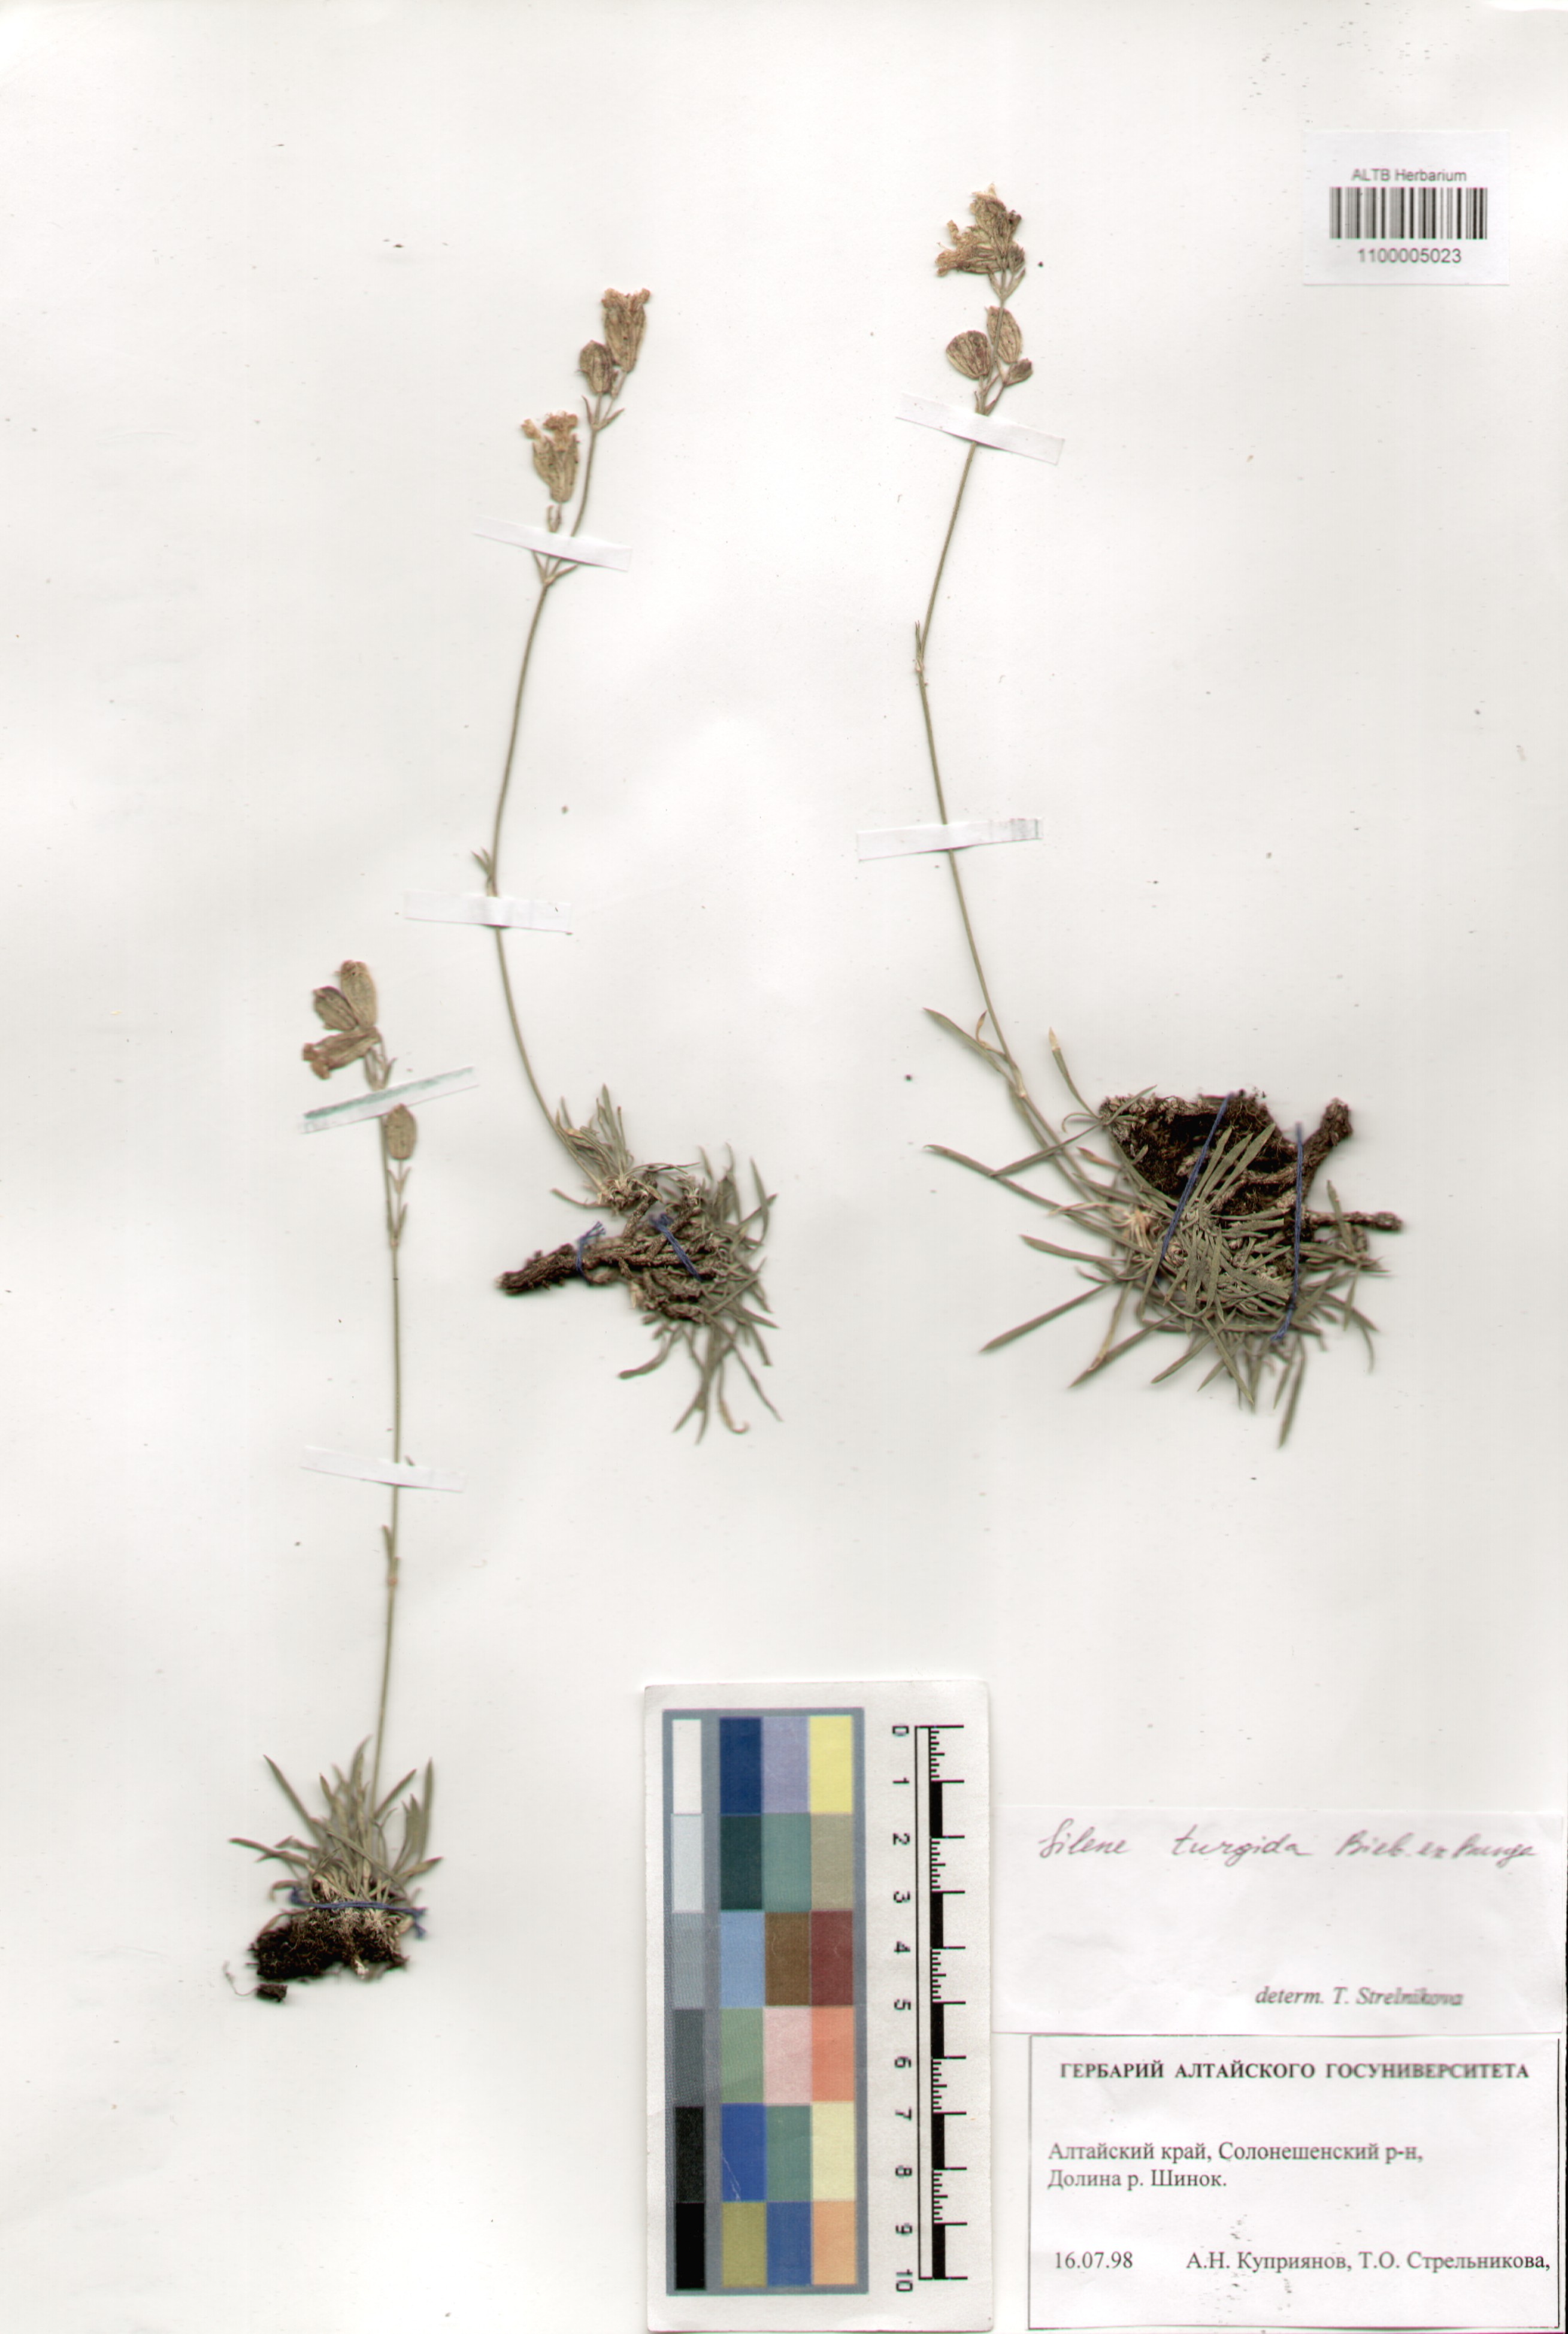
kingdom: Plantae
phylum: Tracheophyta
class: Magnoliopsida
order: Caryophyllales
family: Caryophyllaceae
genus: Silene
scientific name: Silene turgida
